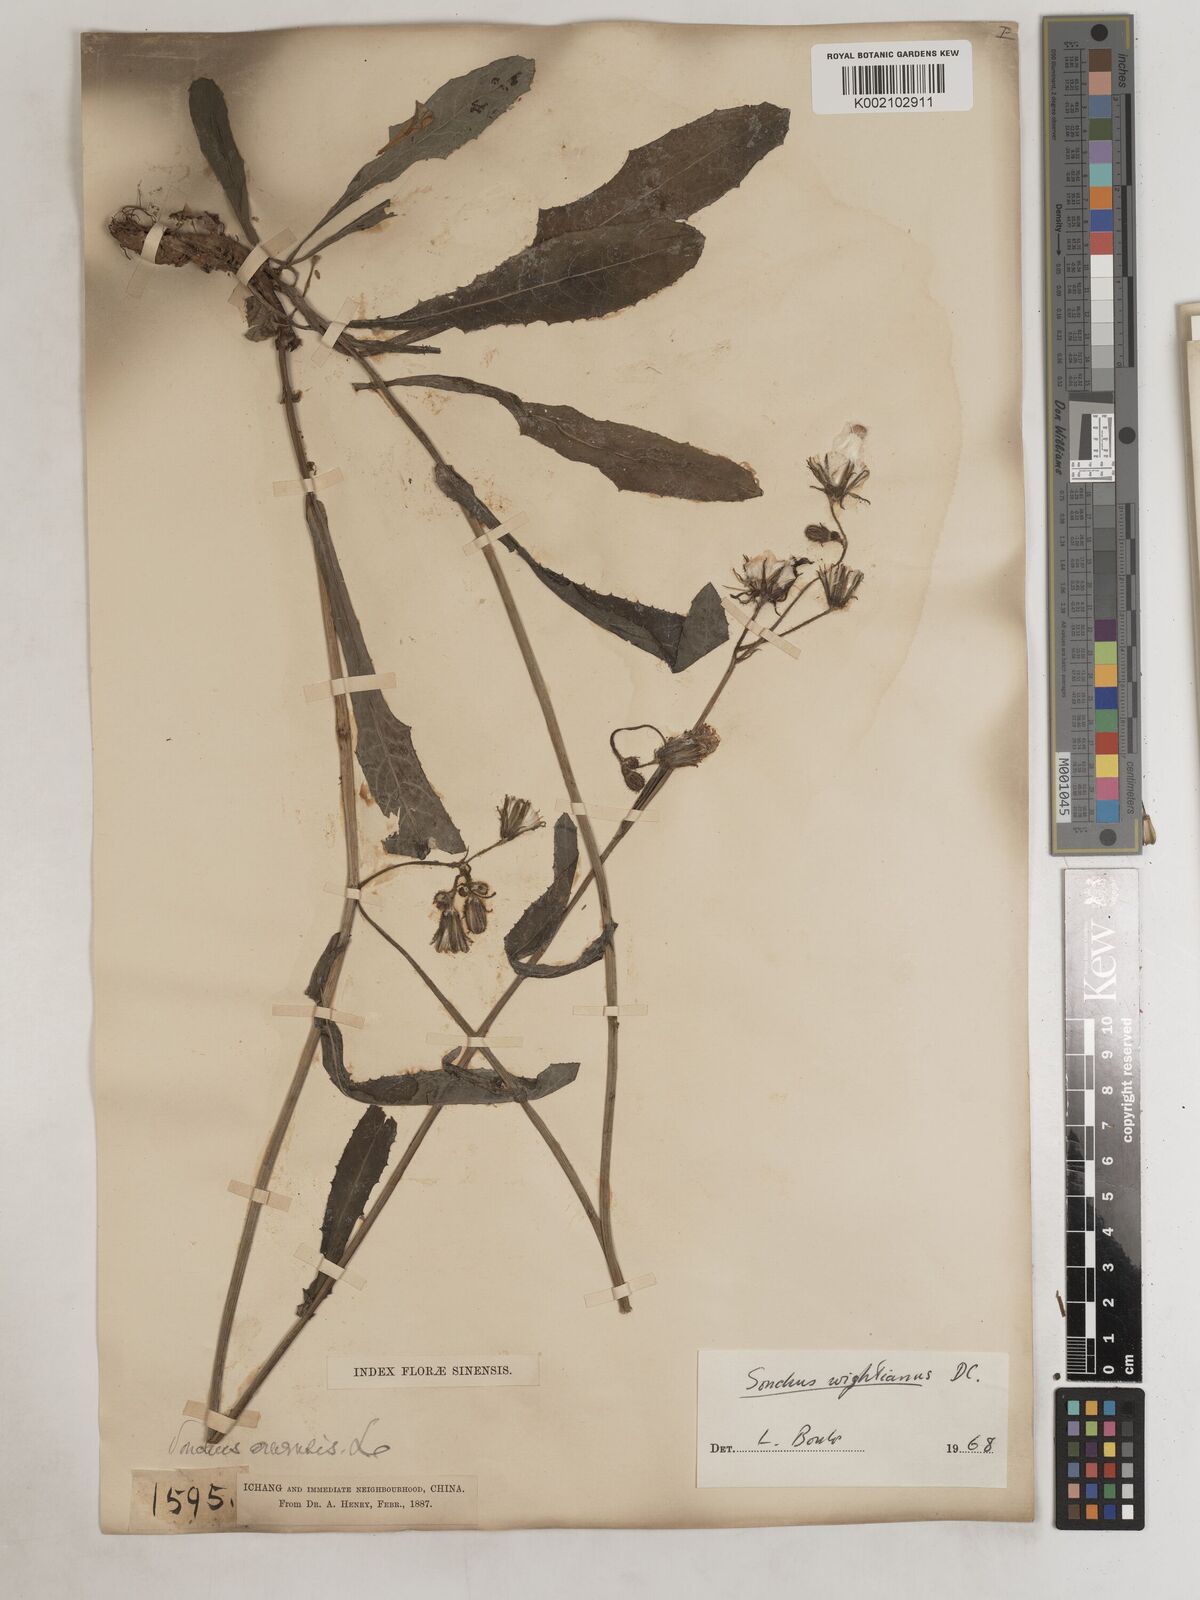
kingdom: Plantae
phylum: Tracheophyta
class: Magnoliopsida
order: Asterales
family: Asteraceae
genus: Sonchus
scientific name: Sonchus wightianus
